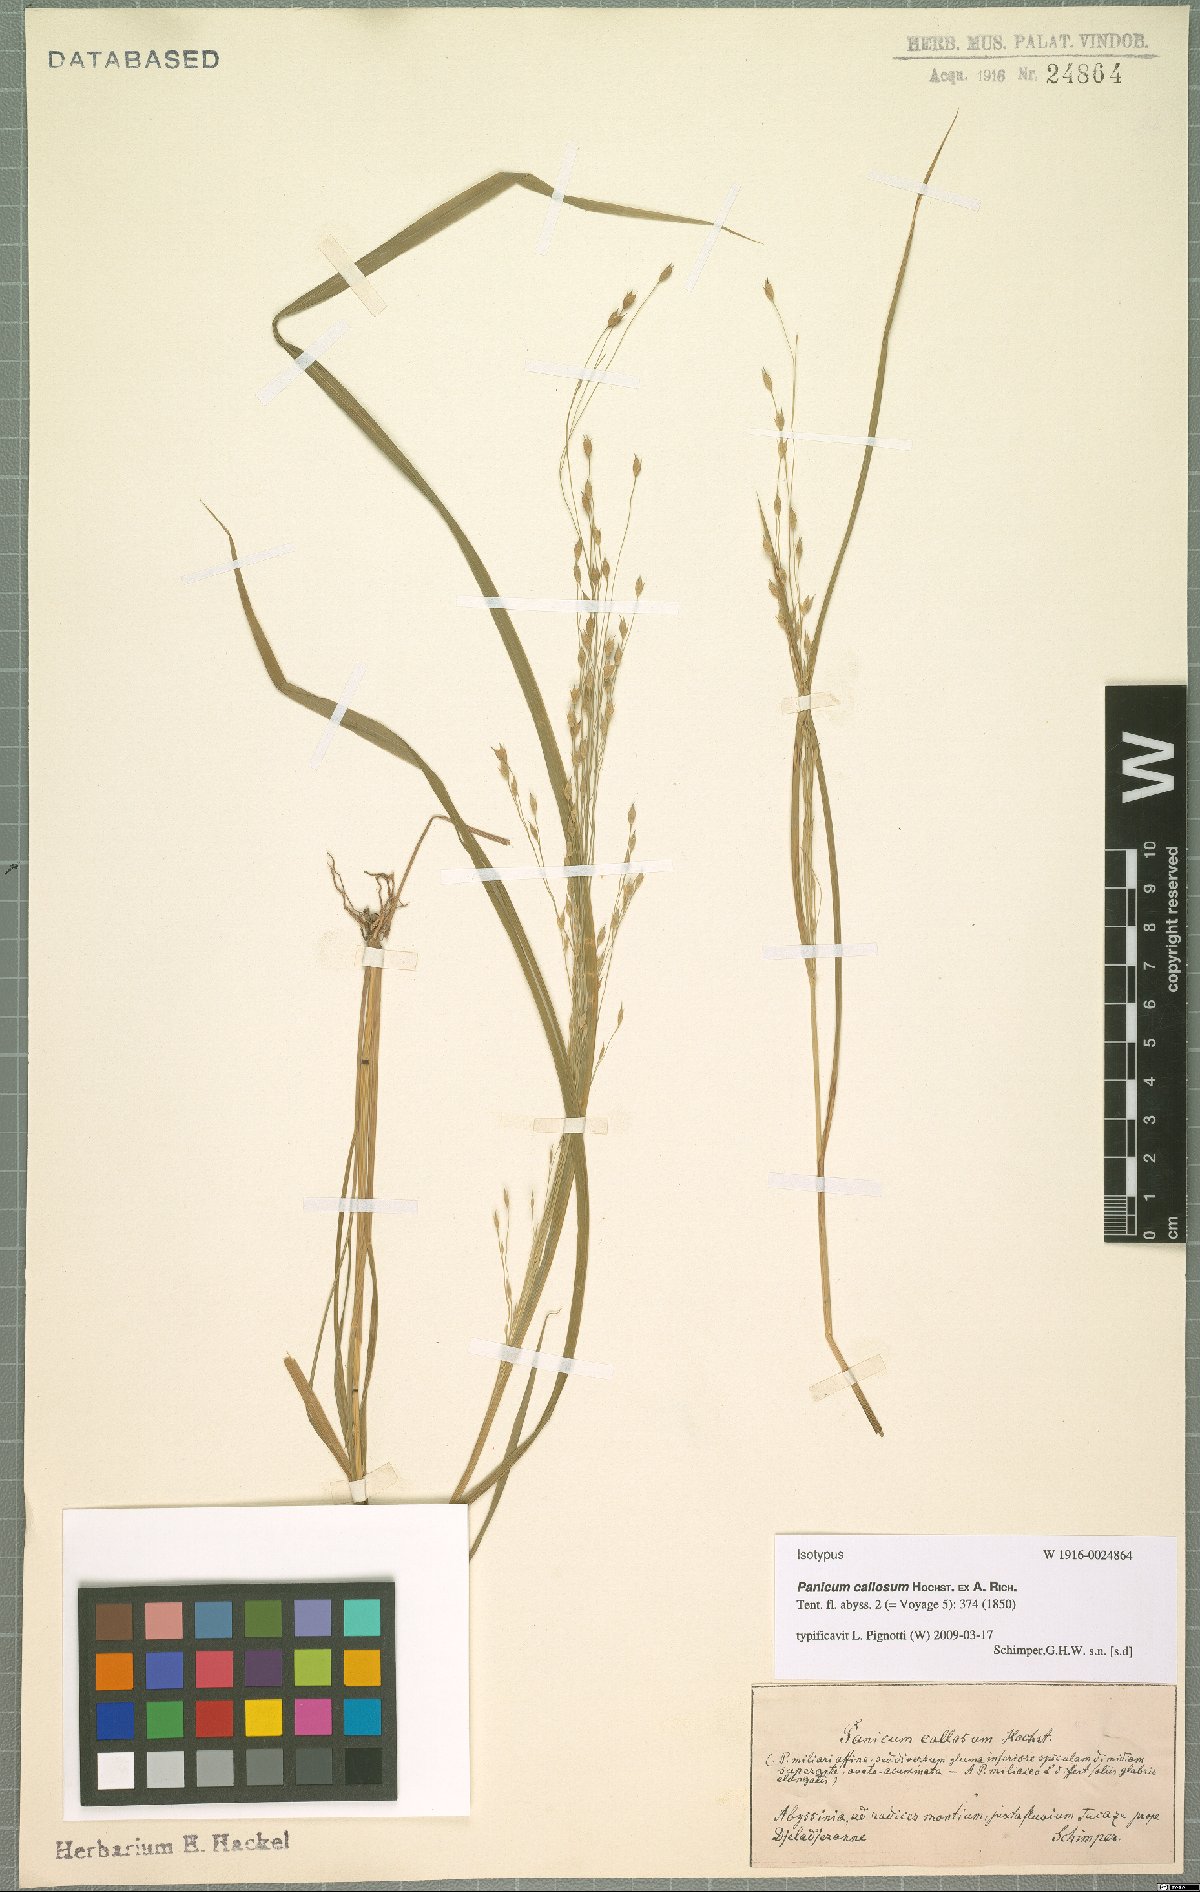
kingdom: Plantae
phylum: Tracheophyta
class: Liliopsida
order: Poales
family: Poaceae
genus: Panicum
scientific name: Panicum callosum
